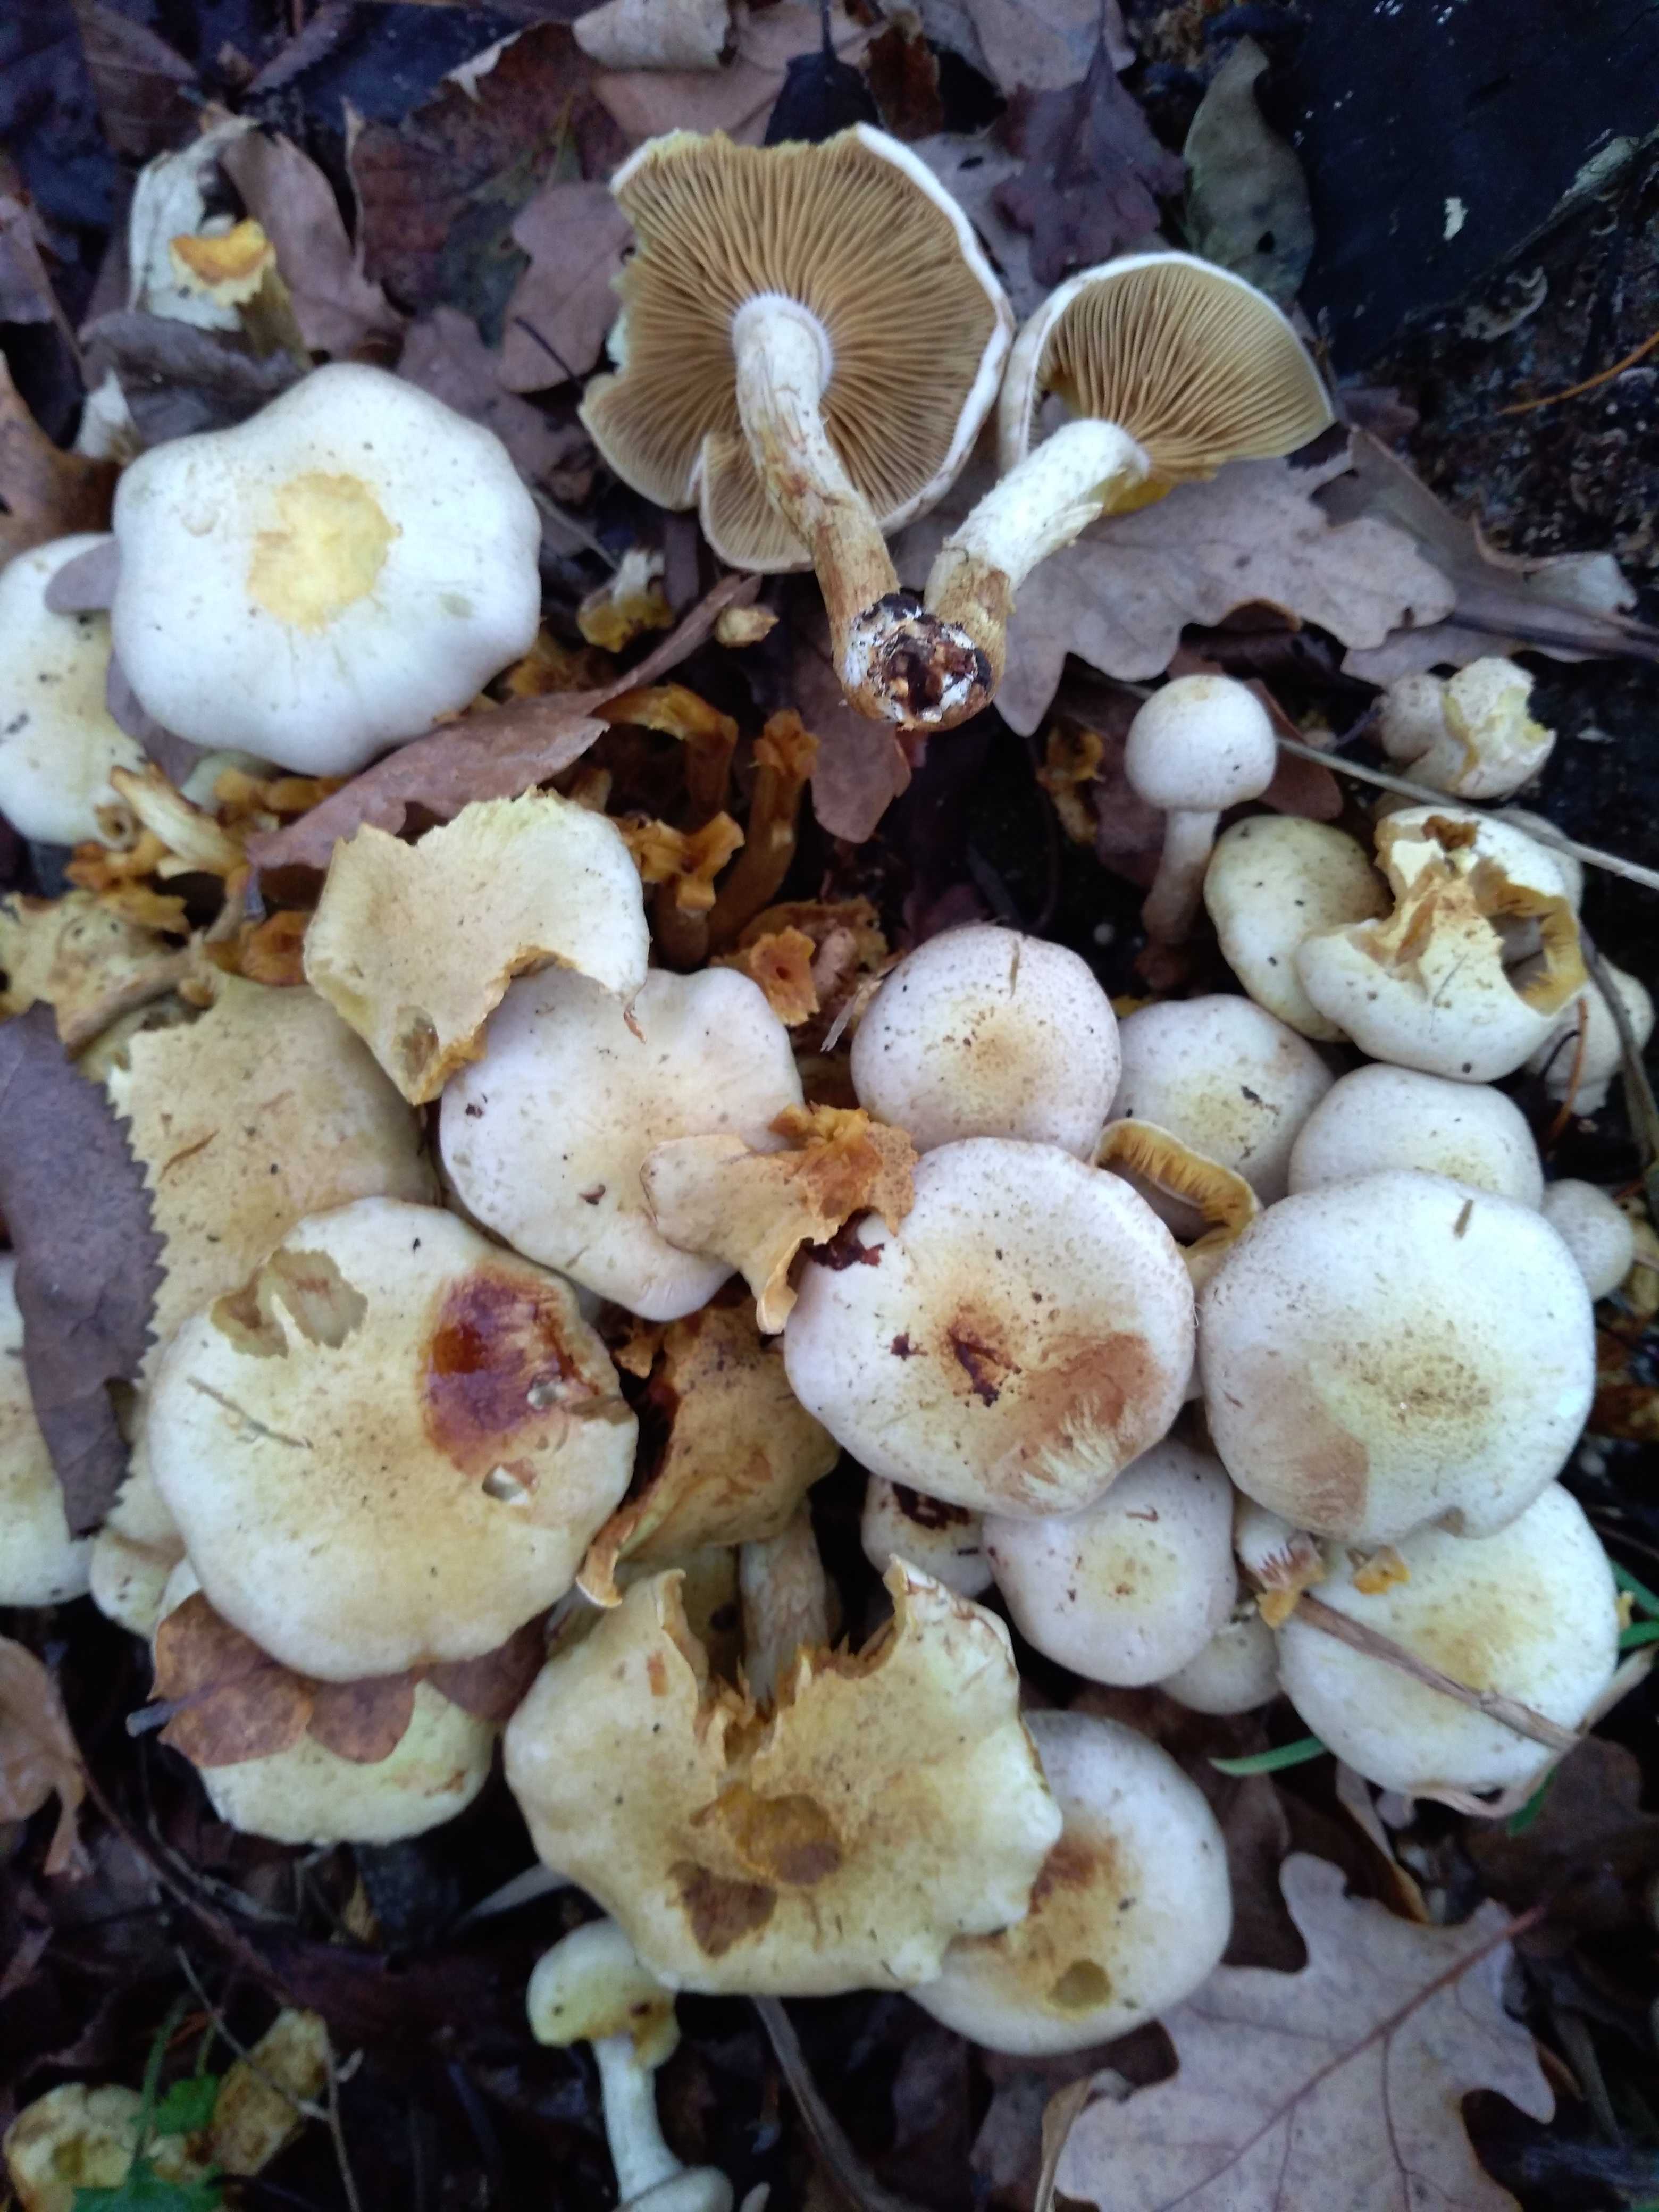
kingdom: Fungi
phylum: Basidiomycota
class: Agaricomycetes
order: Agaricales
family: Strophariaceae
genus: Pholiota
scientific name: Pholiota gummosa
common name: grøngul skælhat
